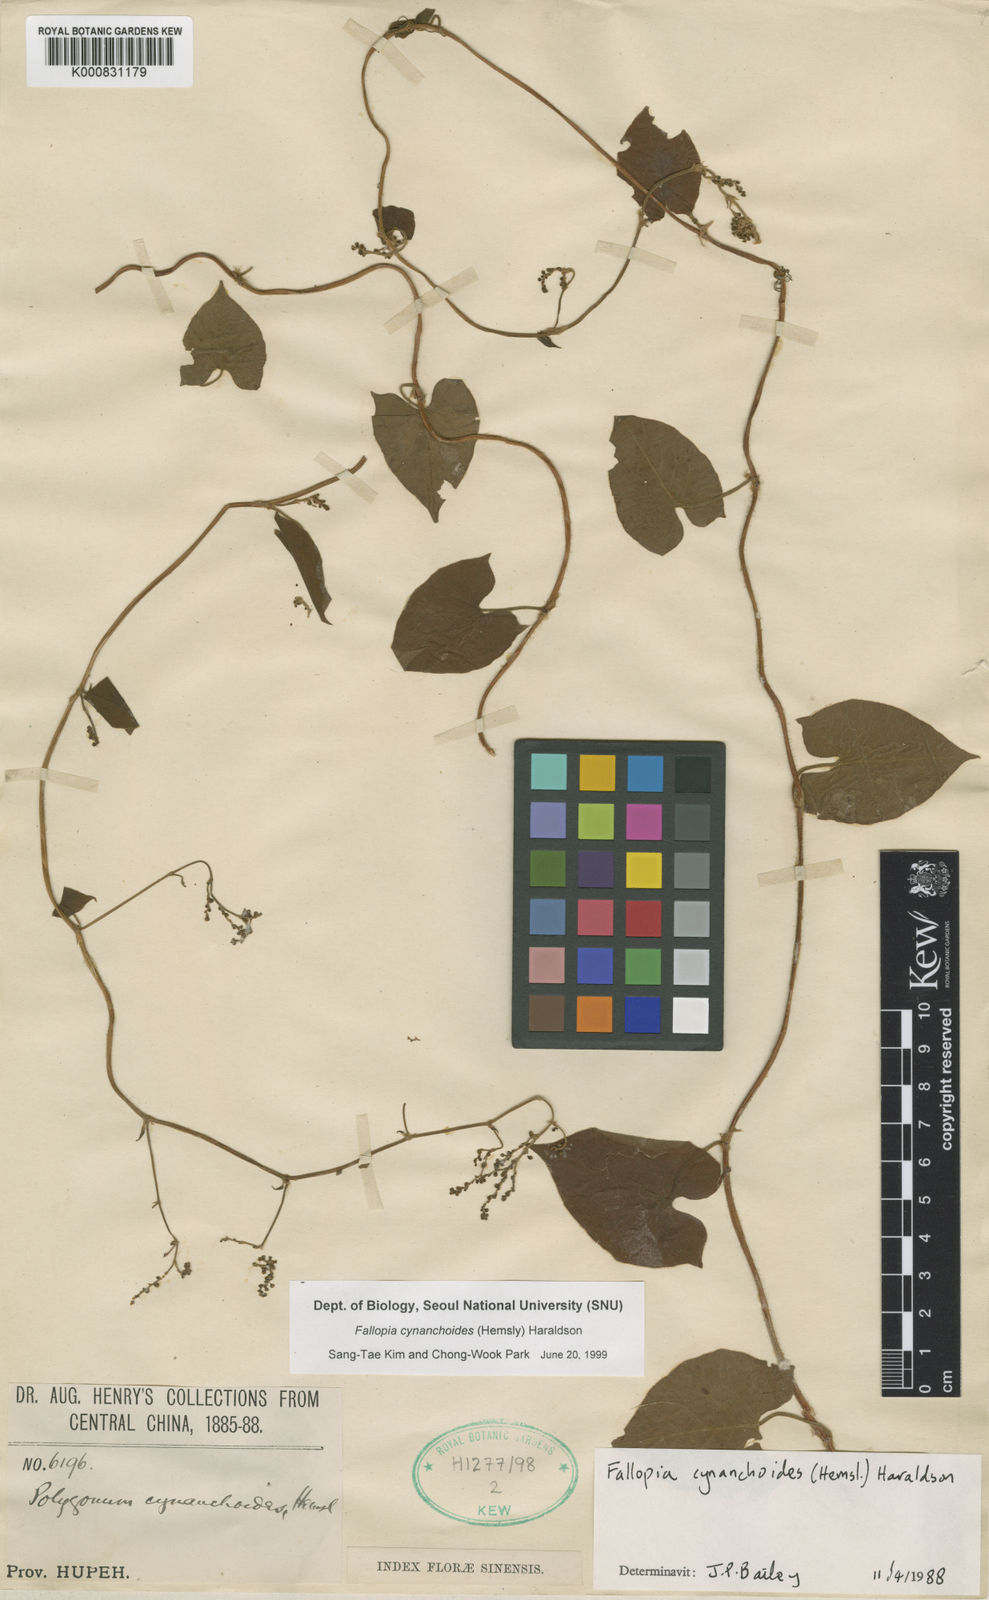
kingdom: Plantae
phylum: Tracheophyta
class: Magnoliopsida
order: Caryophyllales
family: Polygonaceae
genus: Parogonum
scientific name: Parogonum cynanchoides
